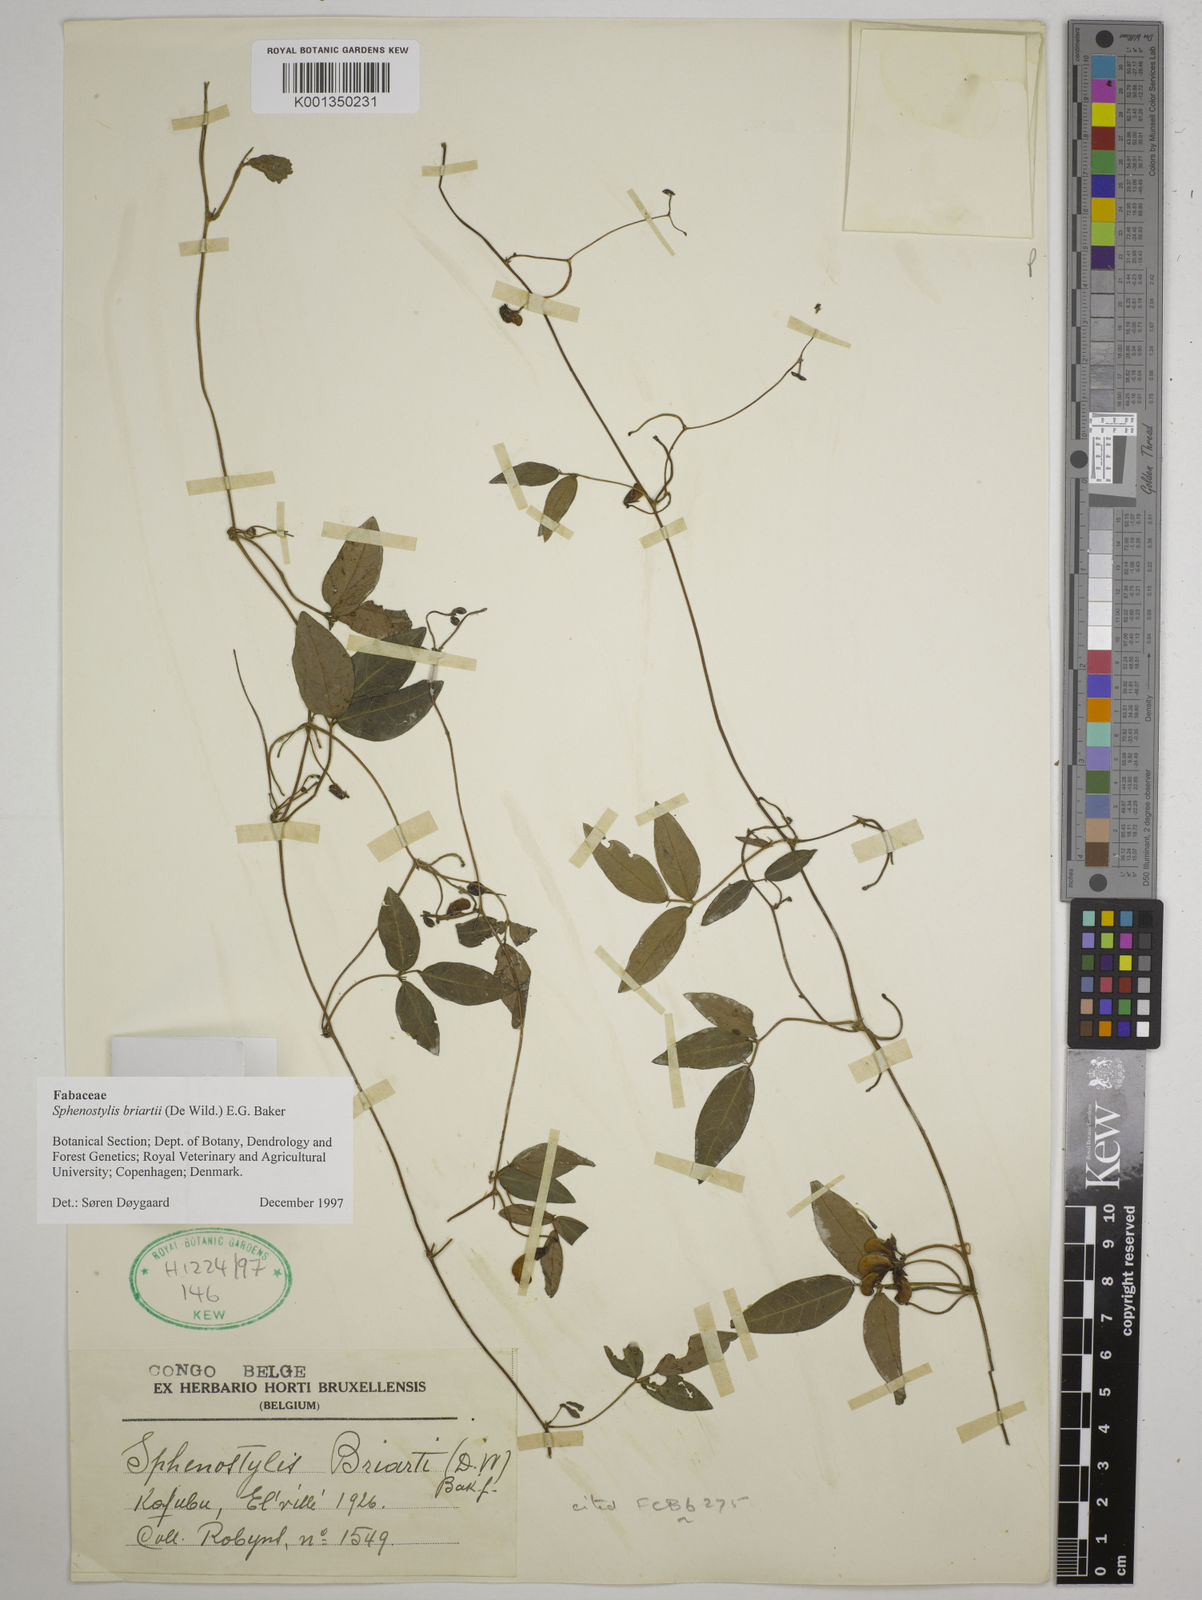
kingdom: Plantae
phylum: Tracheophyta
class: Magnoliopsida
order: Fabales
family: Fabaceae
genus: Sphenostylis
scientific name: Sphenostylis briartii
